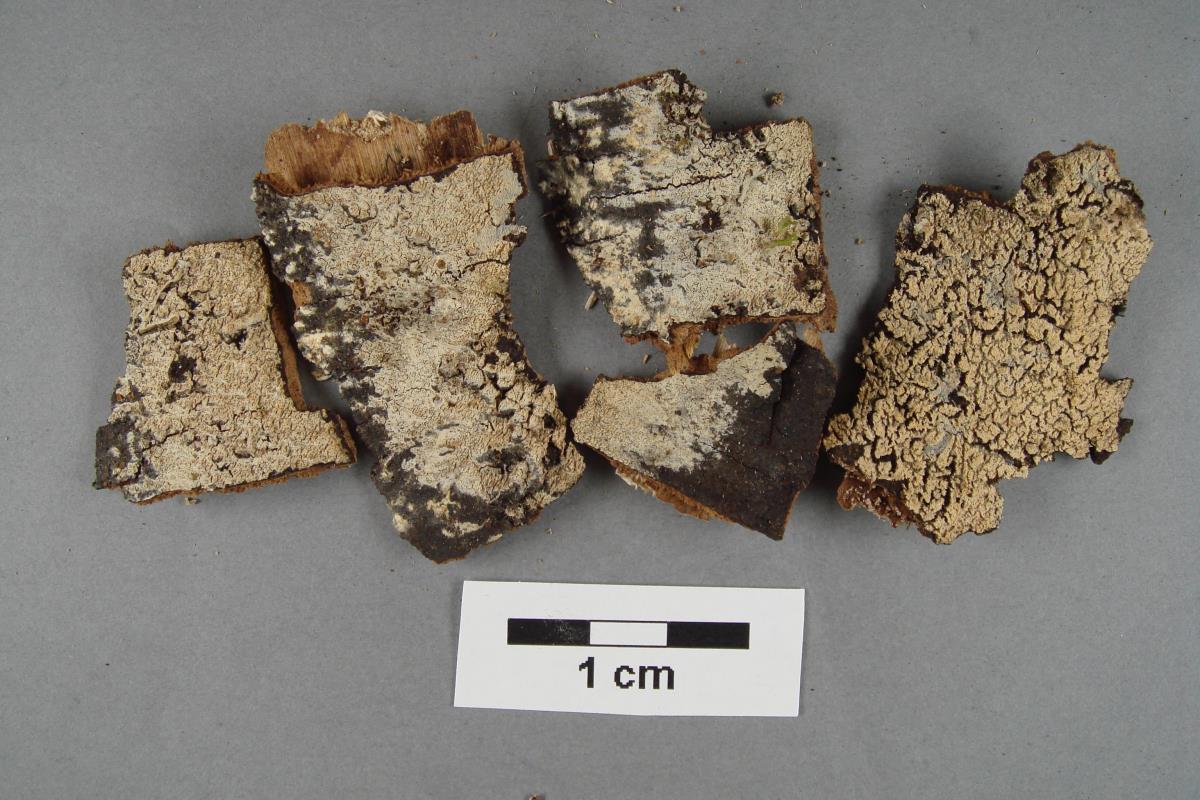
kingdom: Fungi
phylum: Basidiomycota
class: Agaricomycetes
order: Polyporales
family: Meruliaceae
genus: Scopuloides
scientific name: Scopuloides hydnoides
